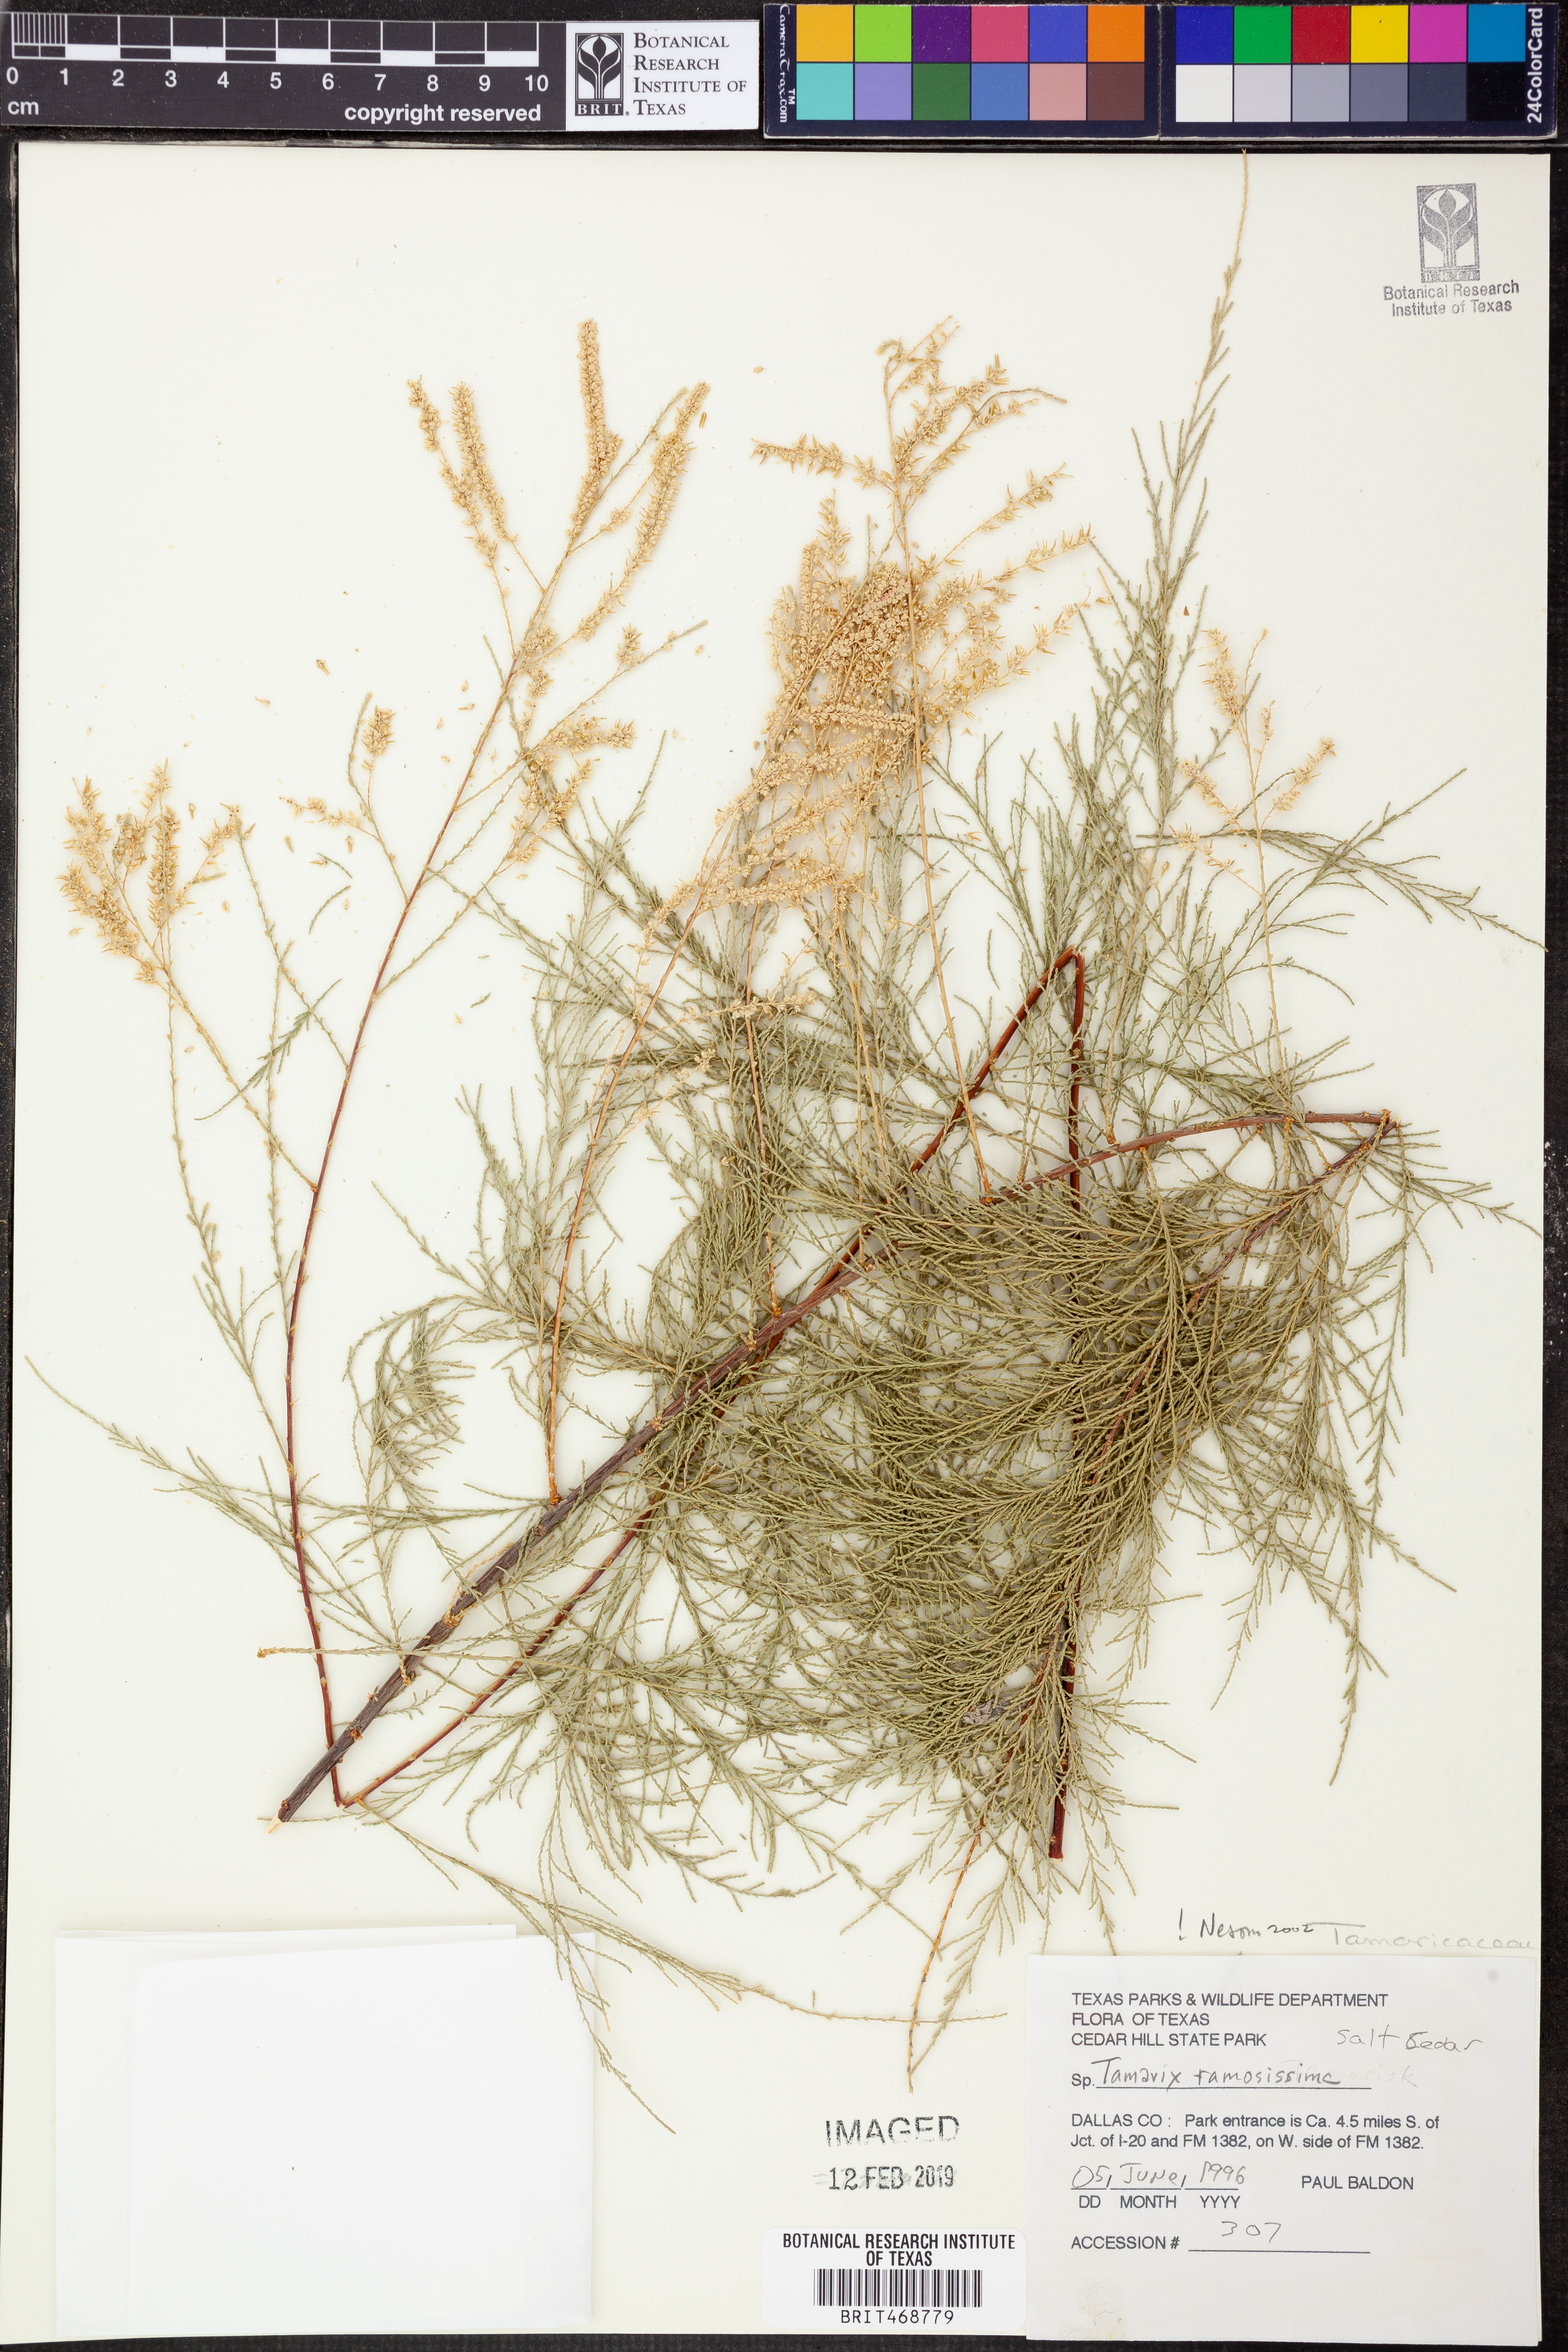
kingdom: Plantae
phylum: Tracheophyta
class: Magnoliopsida
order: Caryophyllales
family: Tamaricaceae
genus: Tamarix
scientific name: Tamarix ramosissima
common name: Pink tamarisk
